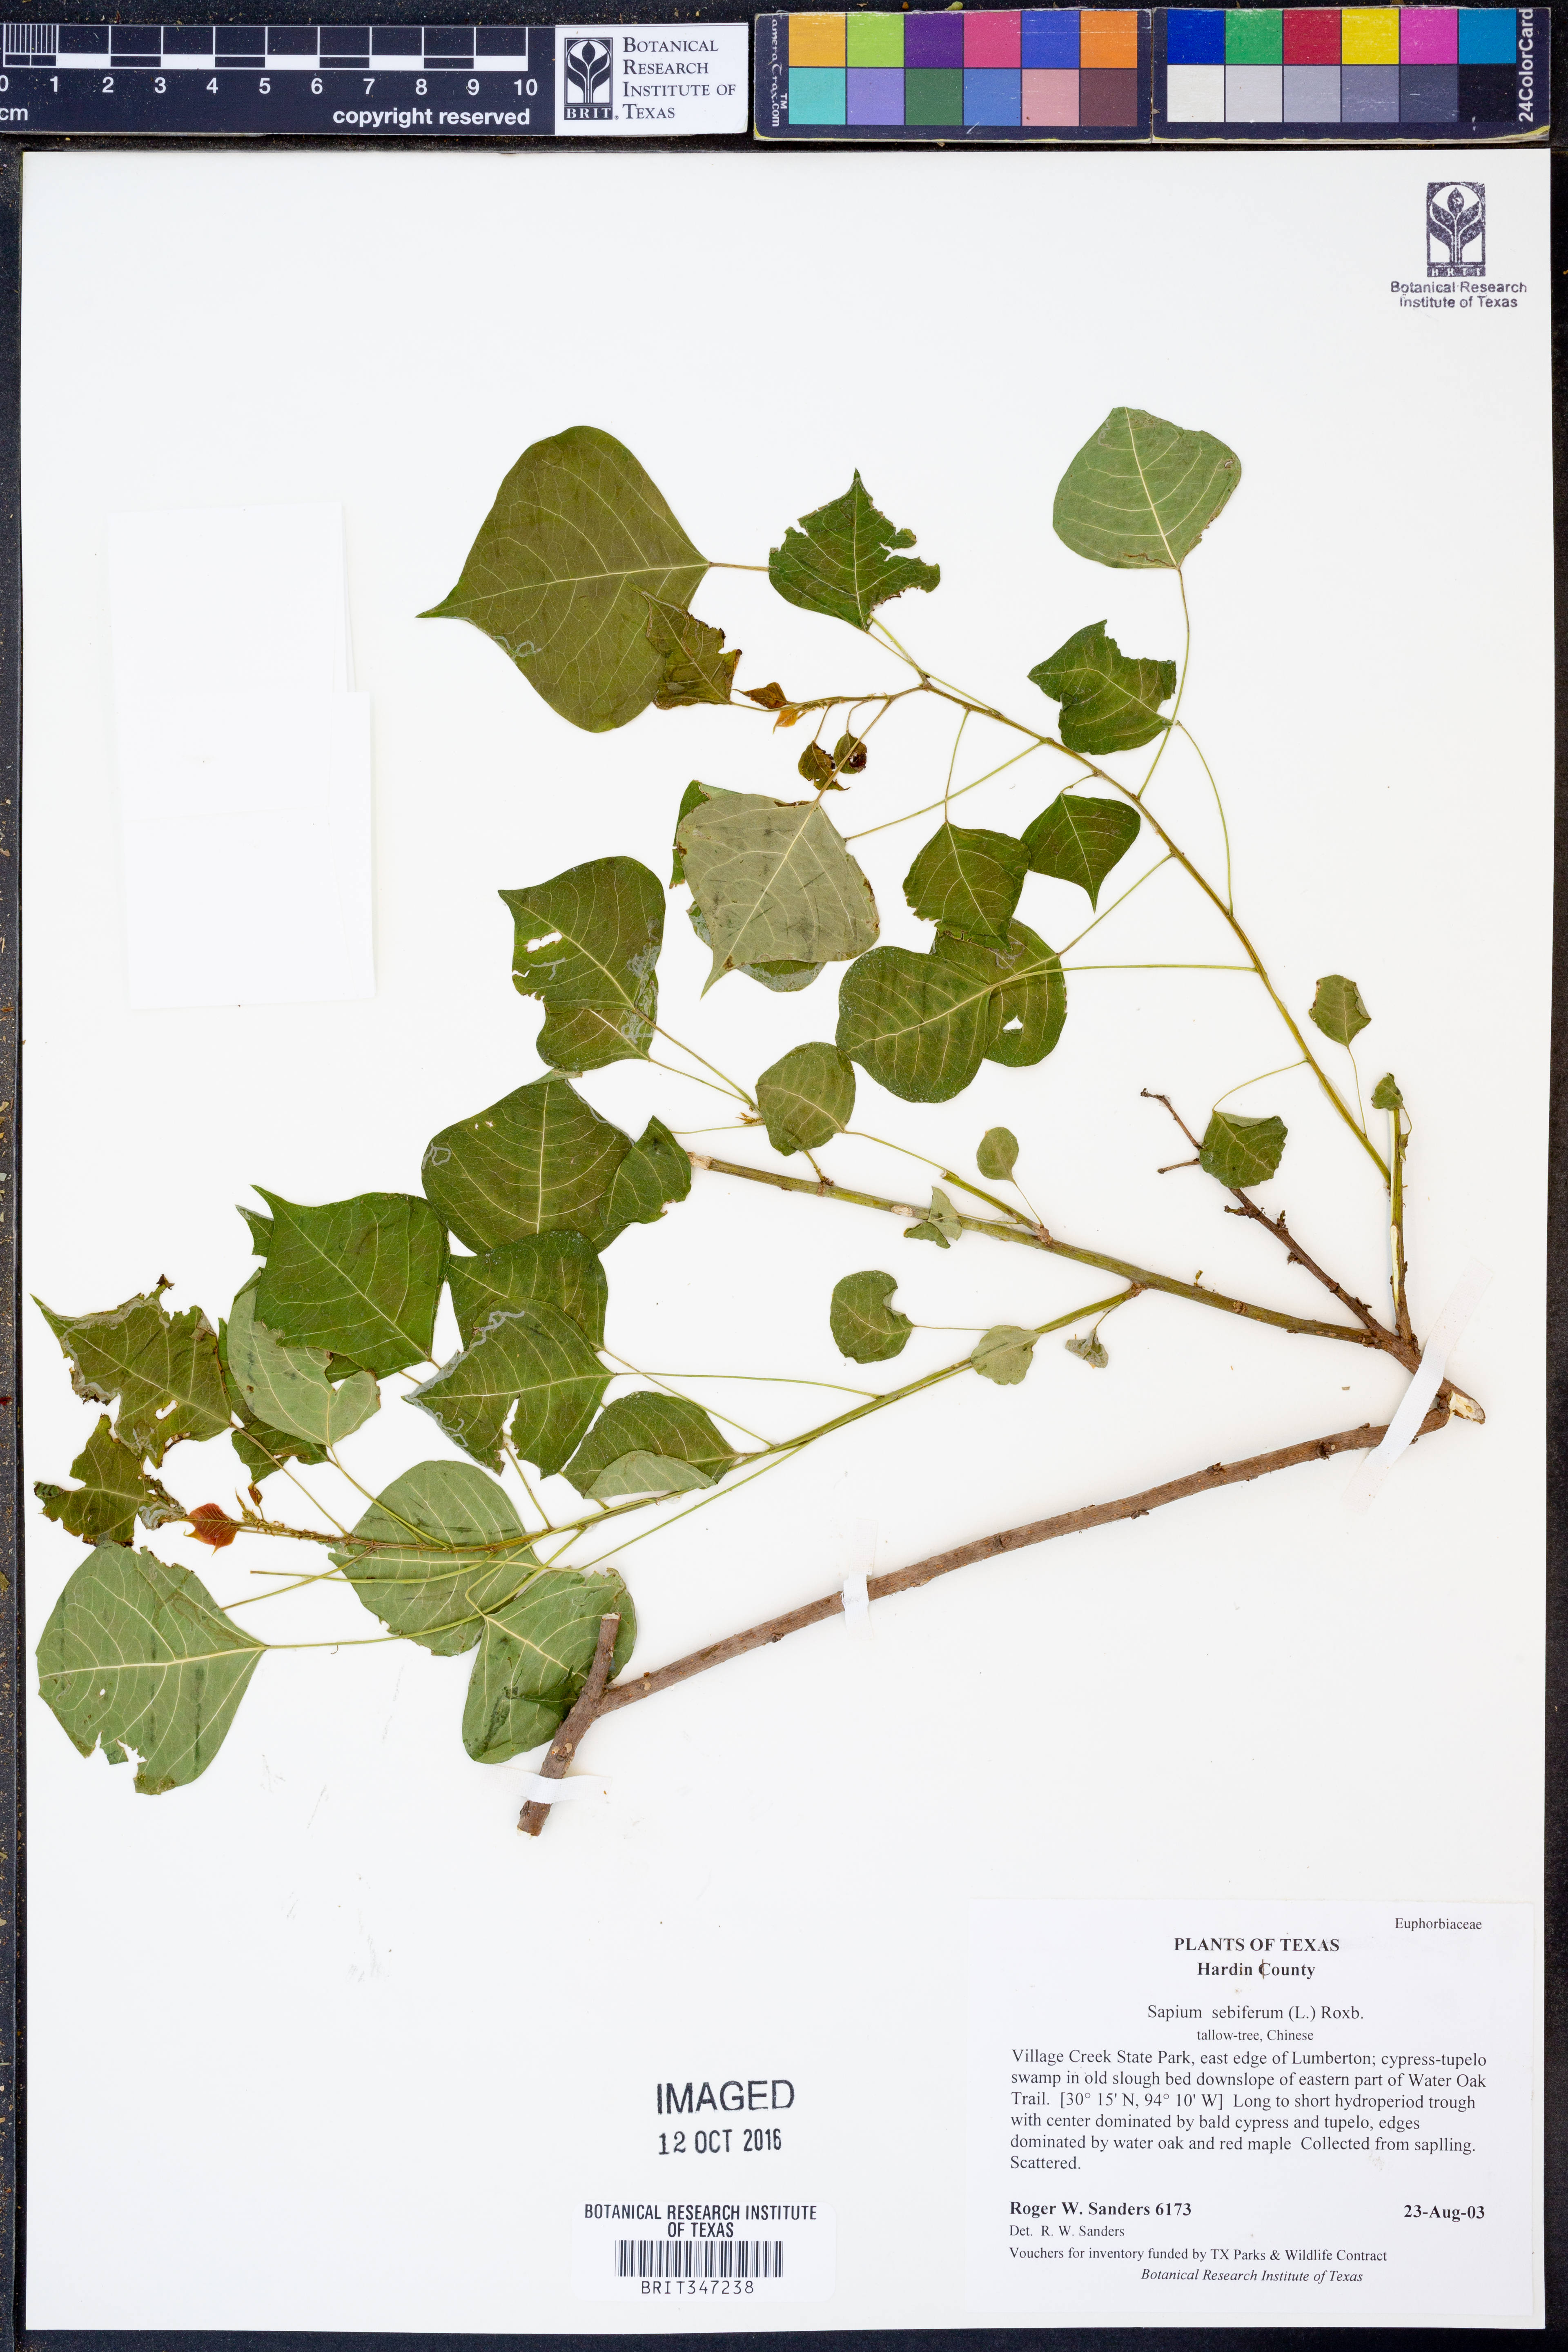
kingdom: Plantae
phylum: Tracheophyta
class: Magnoliopsida
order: Malpighiales
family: Euphorbiaceae
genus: Triadica
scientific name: Triadica sebifera
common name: Chinese tallow
